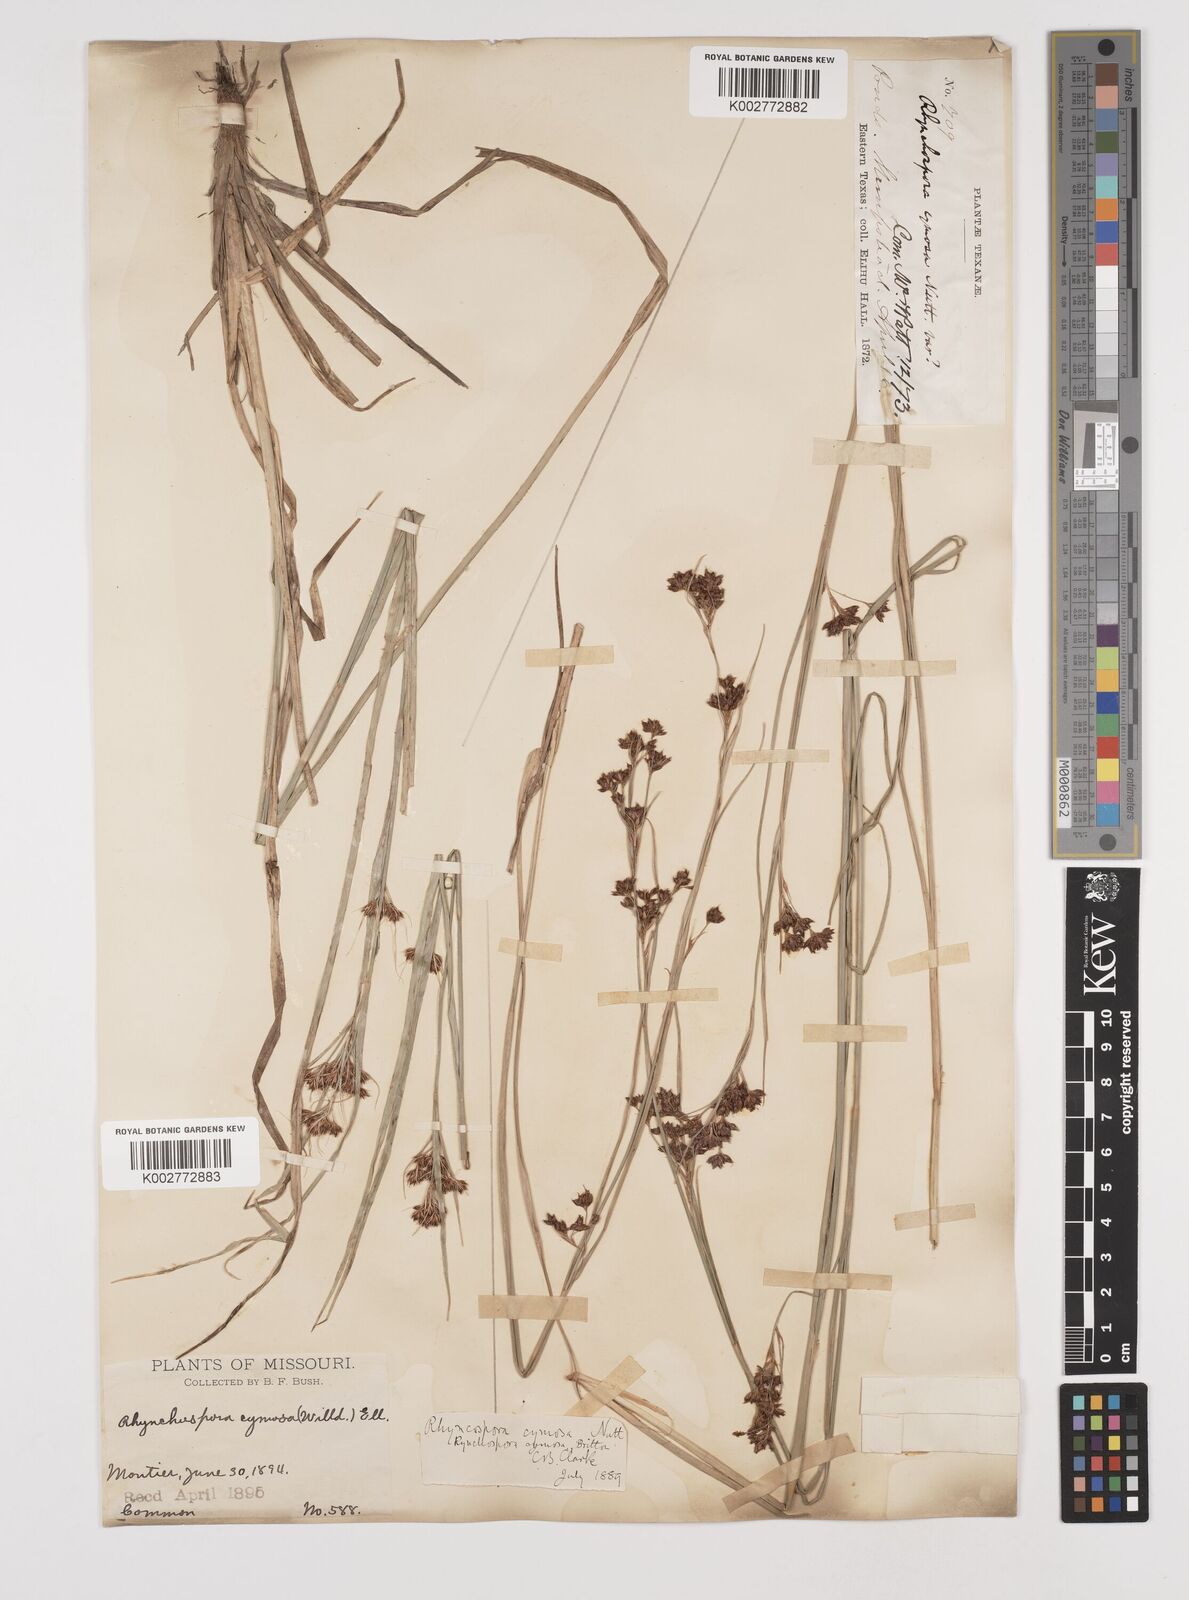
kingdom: Plantae
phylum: Tracheophyta
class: Liliopsida
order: Poales
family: Cyperaceae
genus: Scirpus
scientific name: Scirpus polyphyllus
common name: Leafy bulrush
